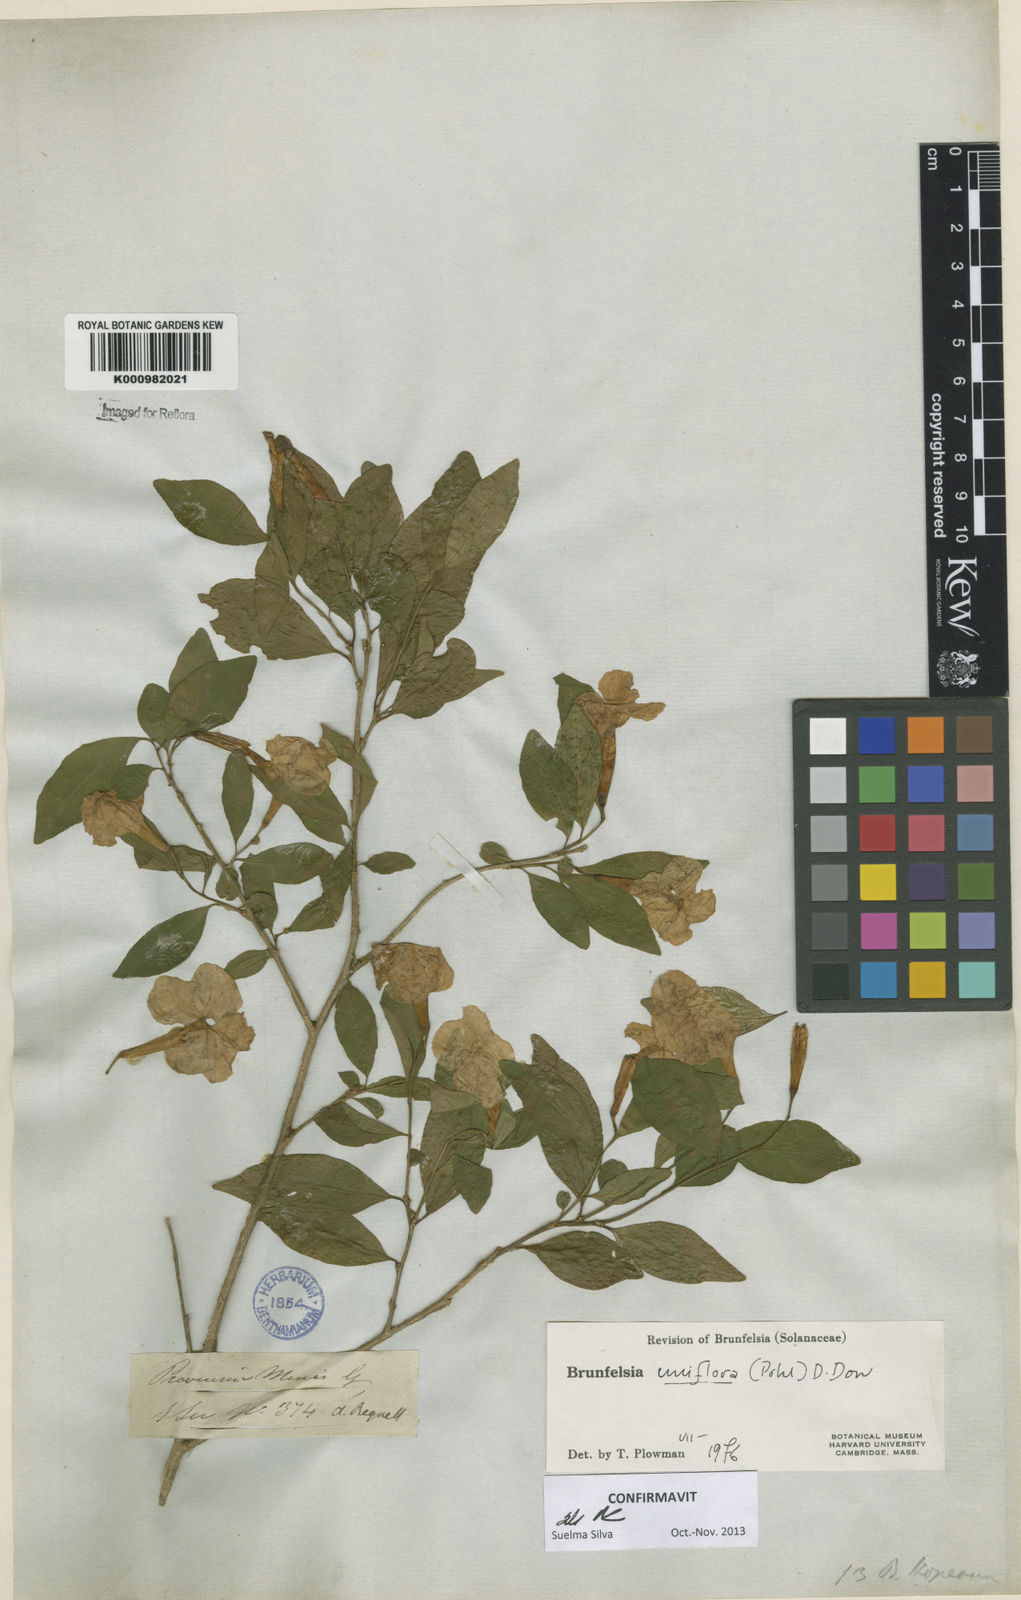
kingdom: Plantae
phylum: Tracheophyta
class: Magnoliopsida
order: Solanales
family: Solanaceae
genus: Brunfelsia
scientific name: Brunfelsia uniflora
